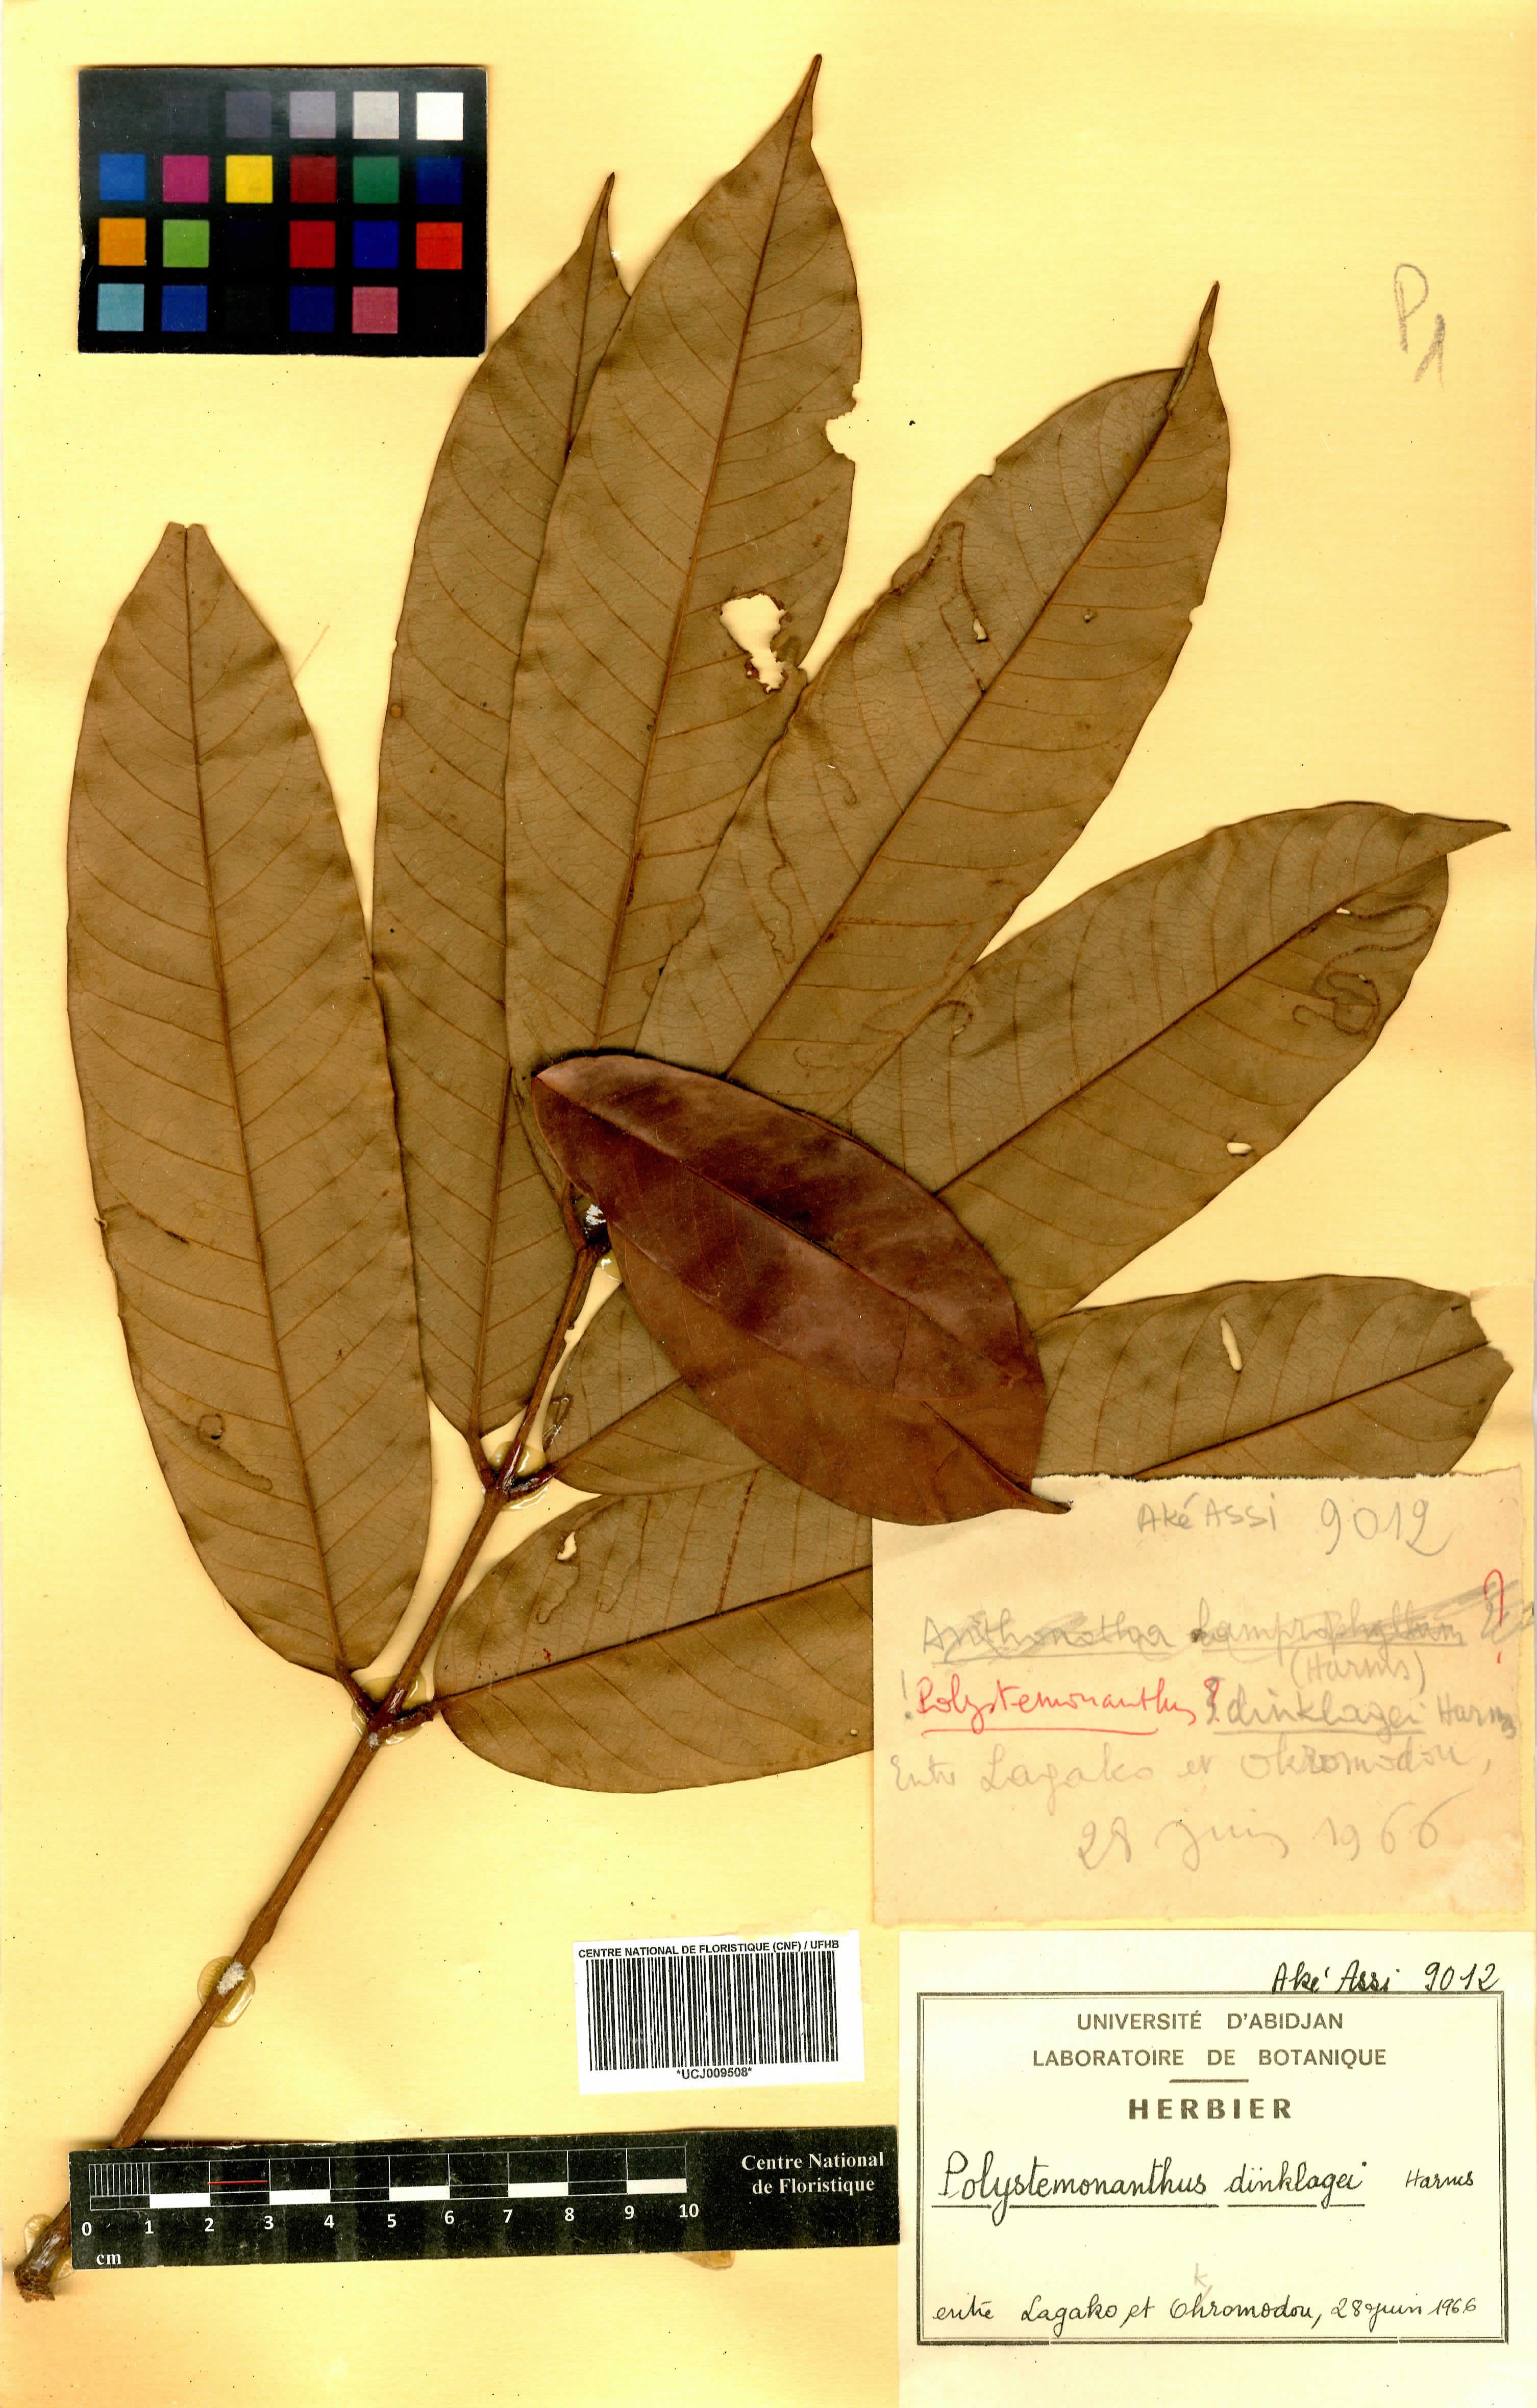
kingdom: Plantae
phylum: Tracheophyta
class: Magnoliopsida
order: Fabales
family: Fabaceae
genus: Polystemonanthus
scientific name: Polystemonanthus dinklagei
